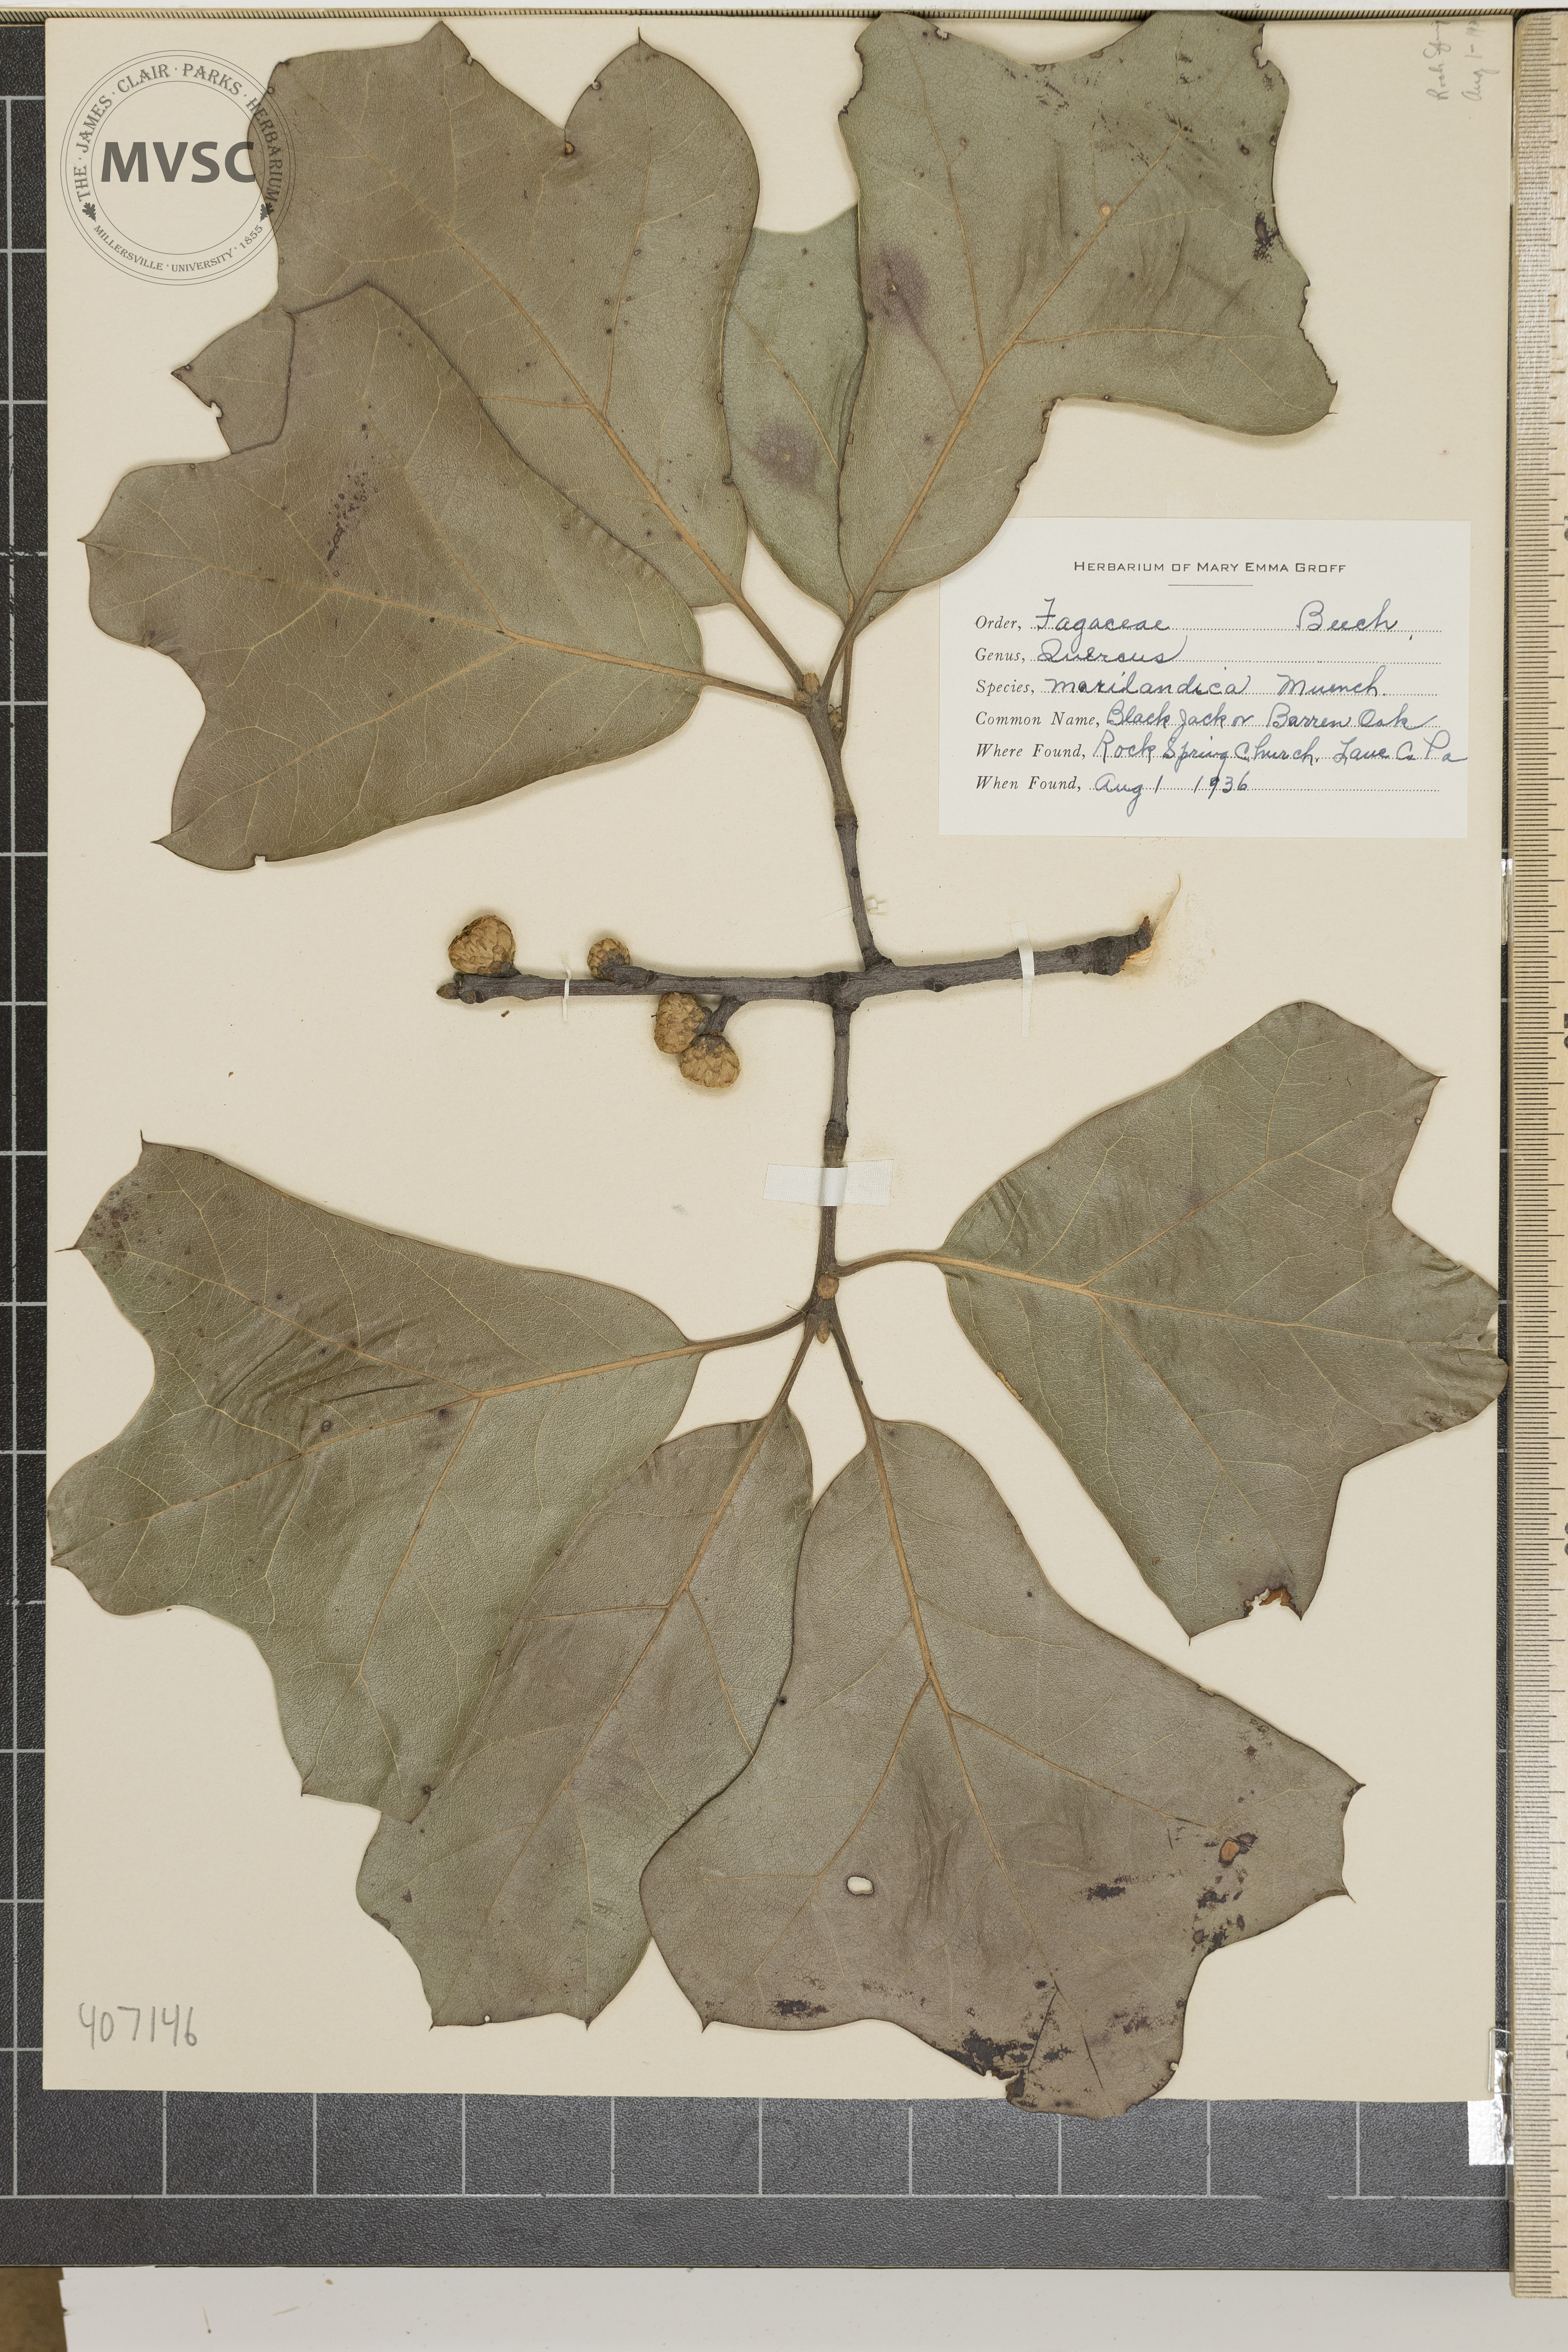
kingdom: Plantae
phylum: Tracheophyta
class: Magnoliopsida
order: Fagales
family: Fagaceae
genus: Quercus
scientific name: Quercus marilandica
